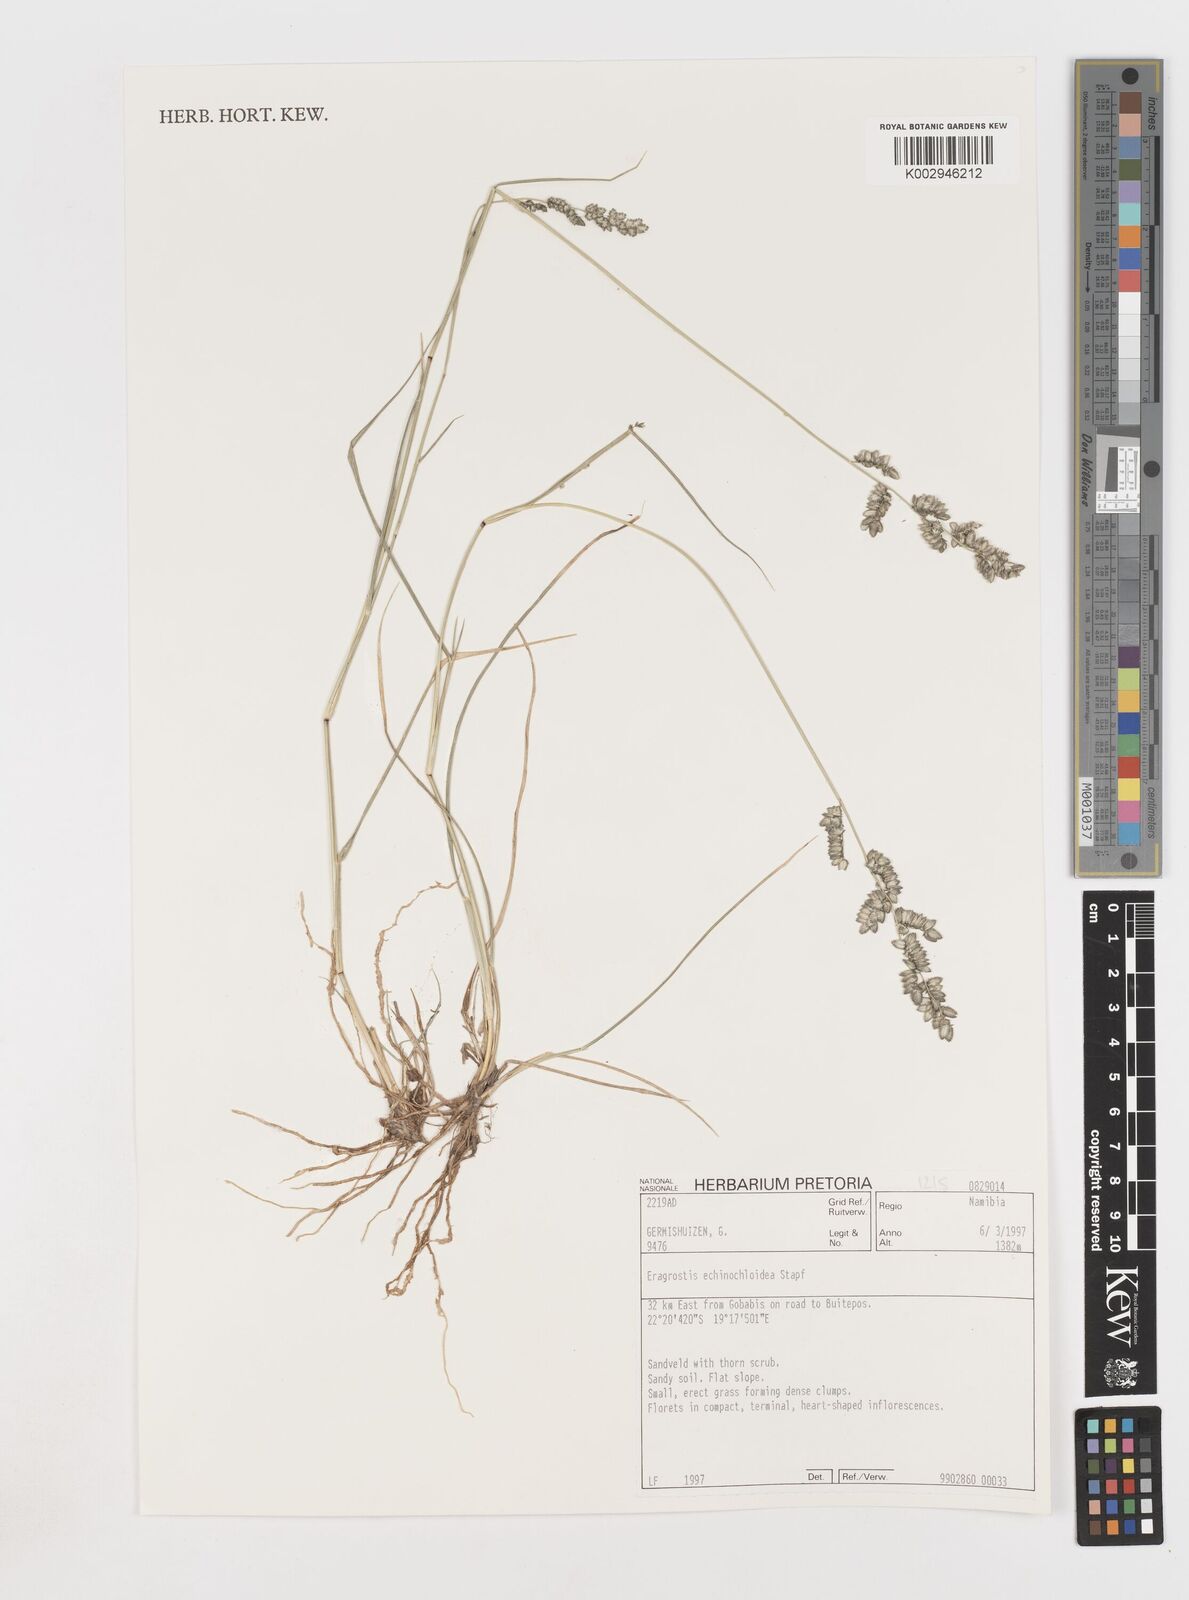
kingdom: Plantae
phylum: Tracheophyta
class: Liliopsida
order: Poales
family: Poaceae
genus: Eragrostis
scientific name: Eragrostis echinochloidea
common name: African lovegrass
